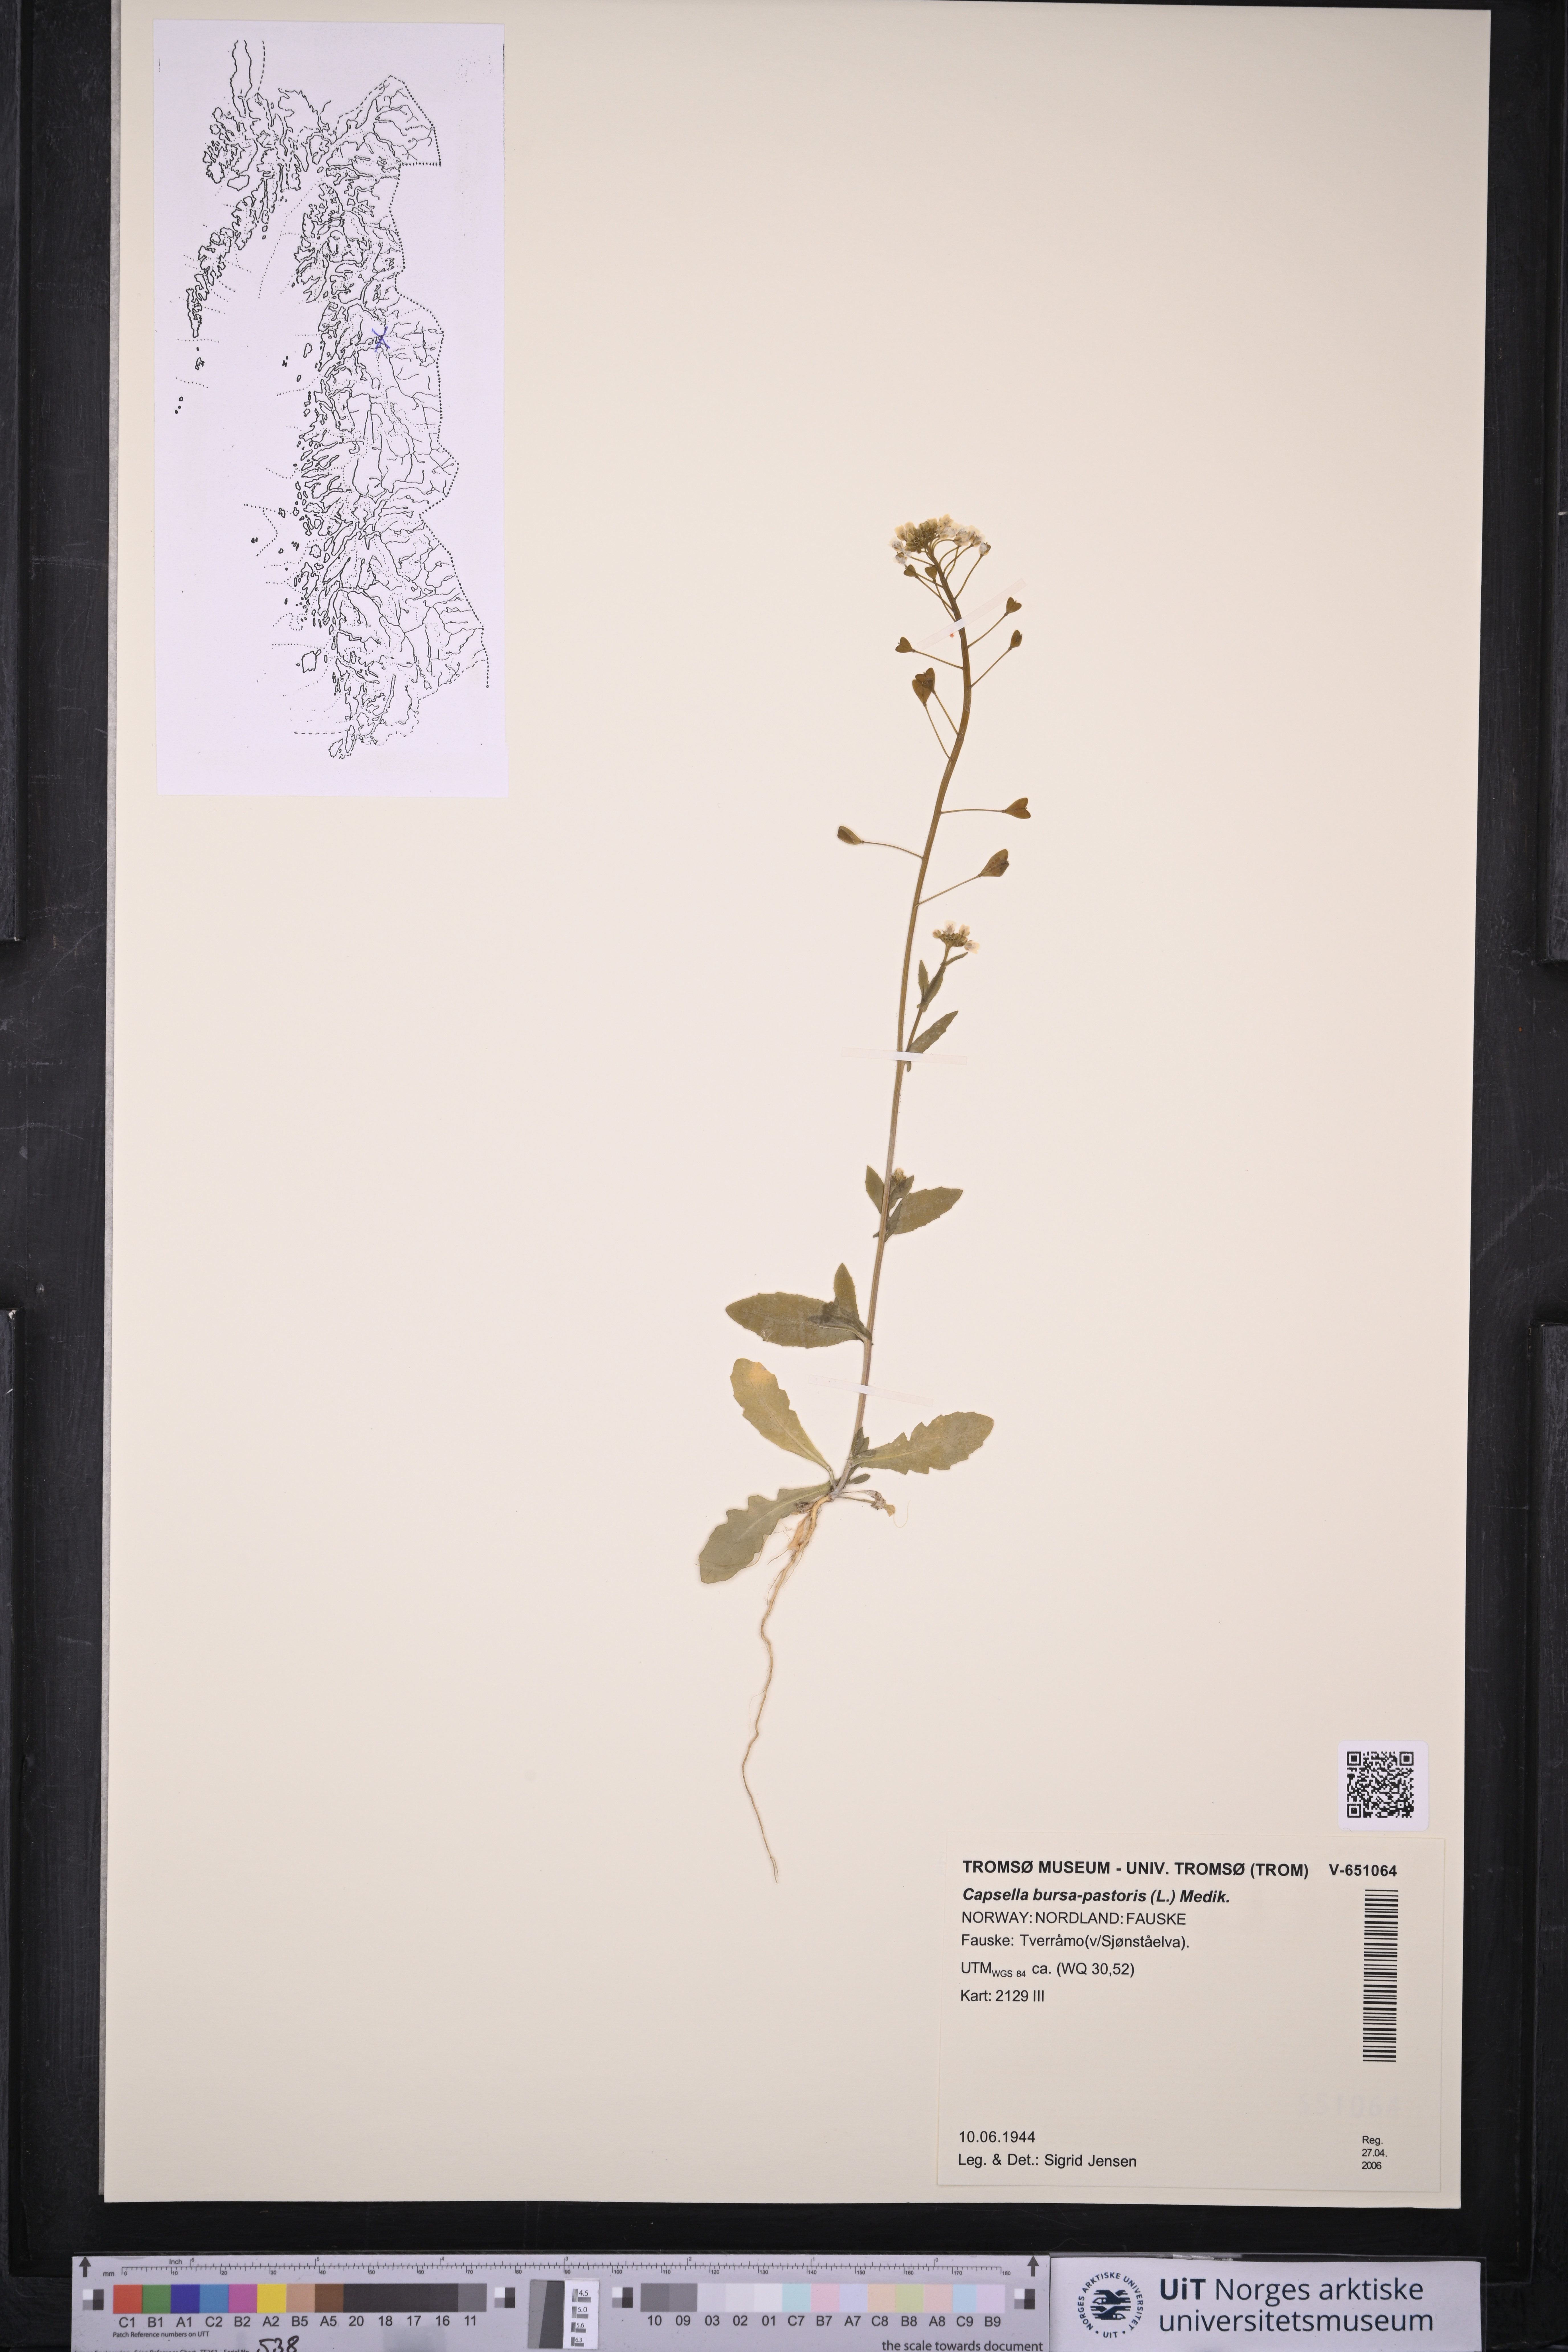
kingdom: Plantae
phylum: Tracheophyta
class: Magnoliopsida
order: Brassicales
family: Brassicaceae
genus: Capsella
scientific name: Capsella bursa-pastoris
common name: Shepherd's purse
